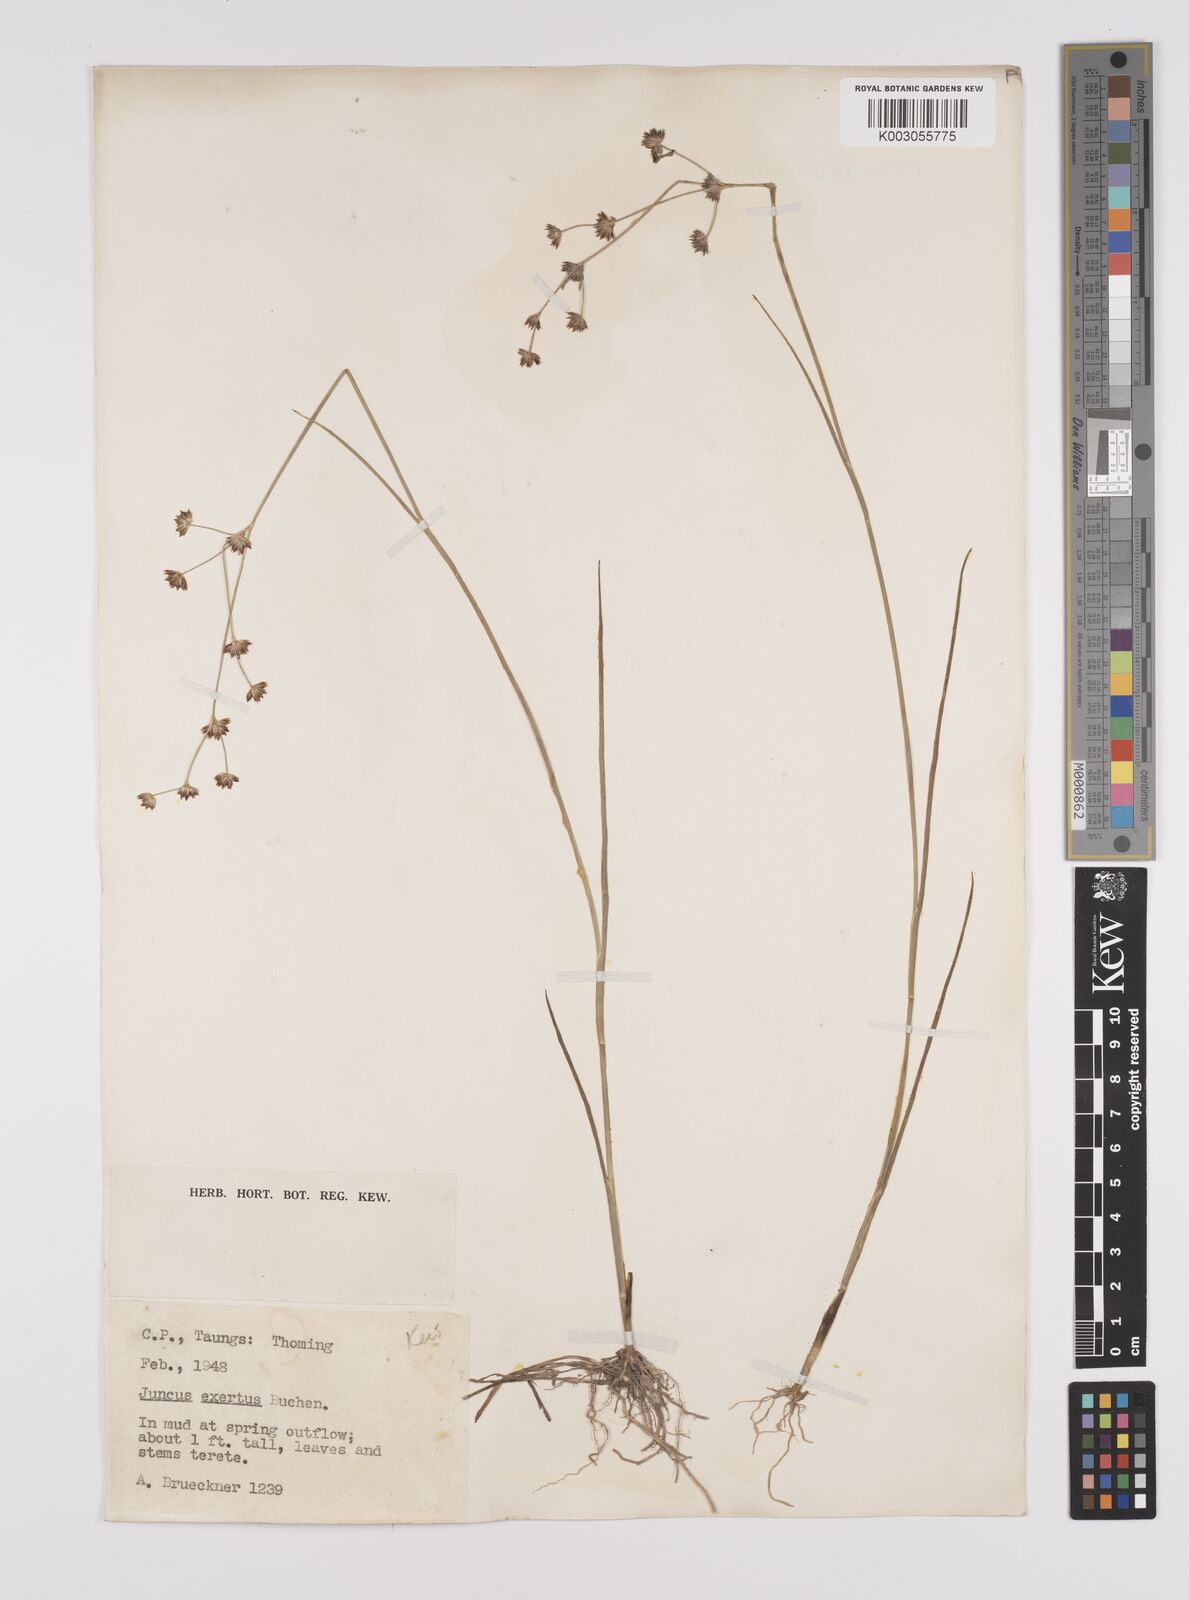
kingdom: Plantae
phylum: Tracheophyta
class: Liliopsida
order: Poales
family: Juncaceae
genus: Juncus
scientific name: Juncus exsertus
